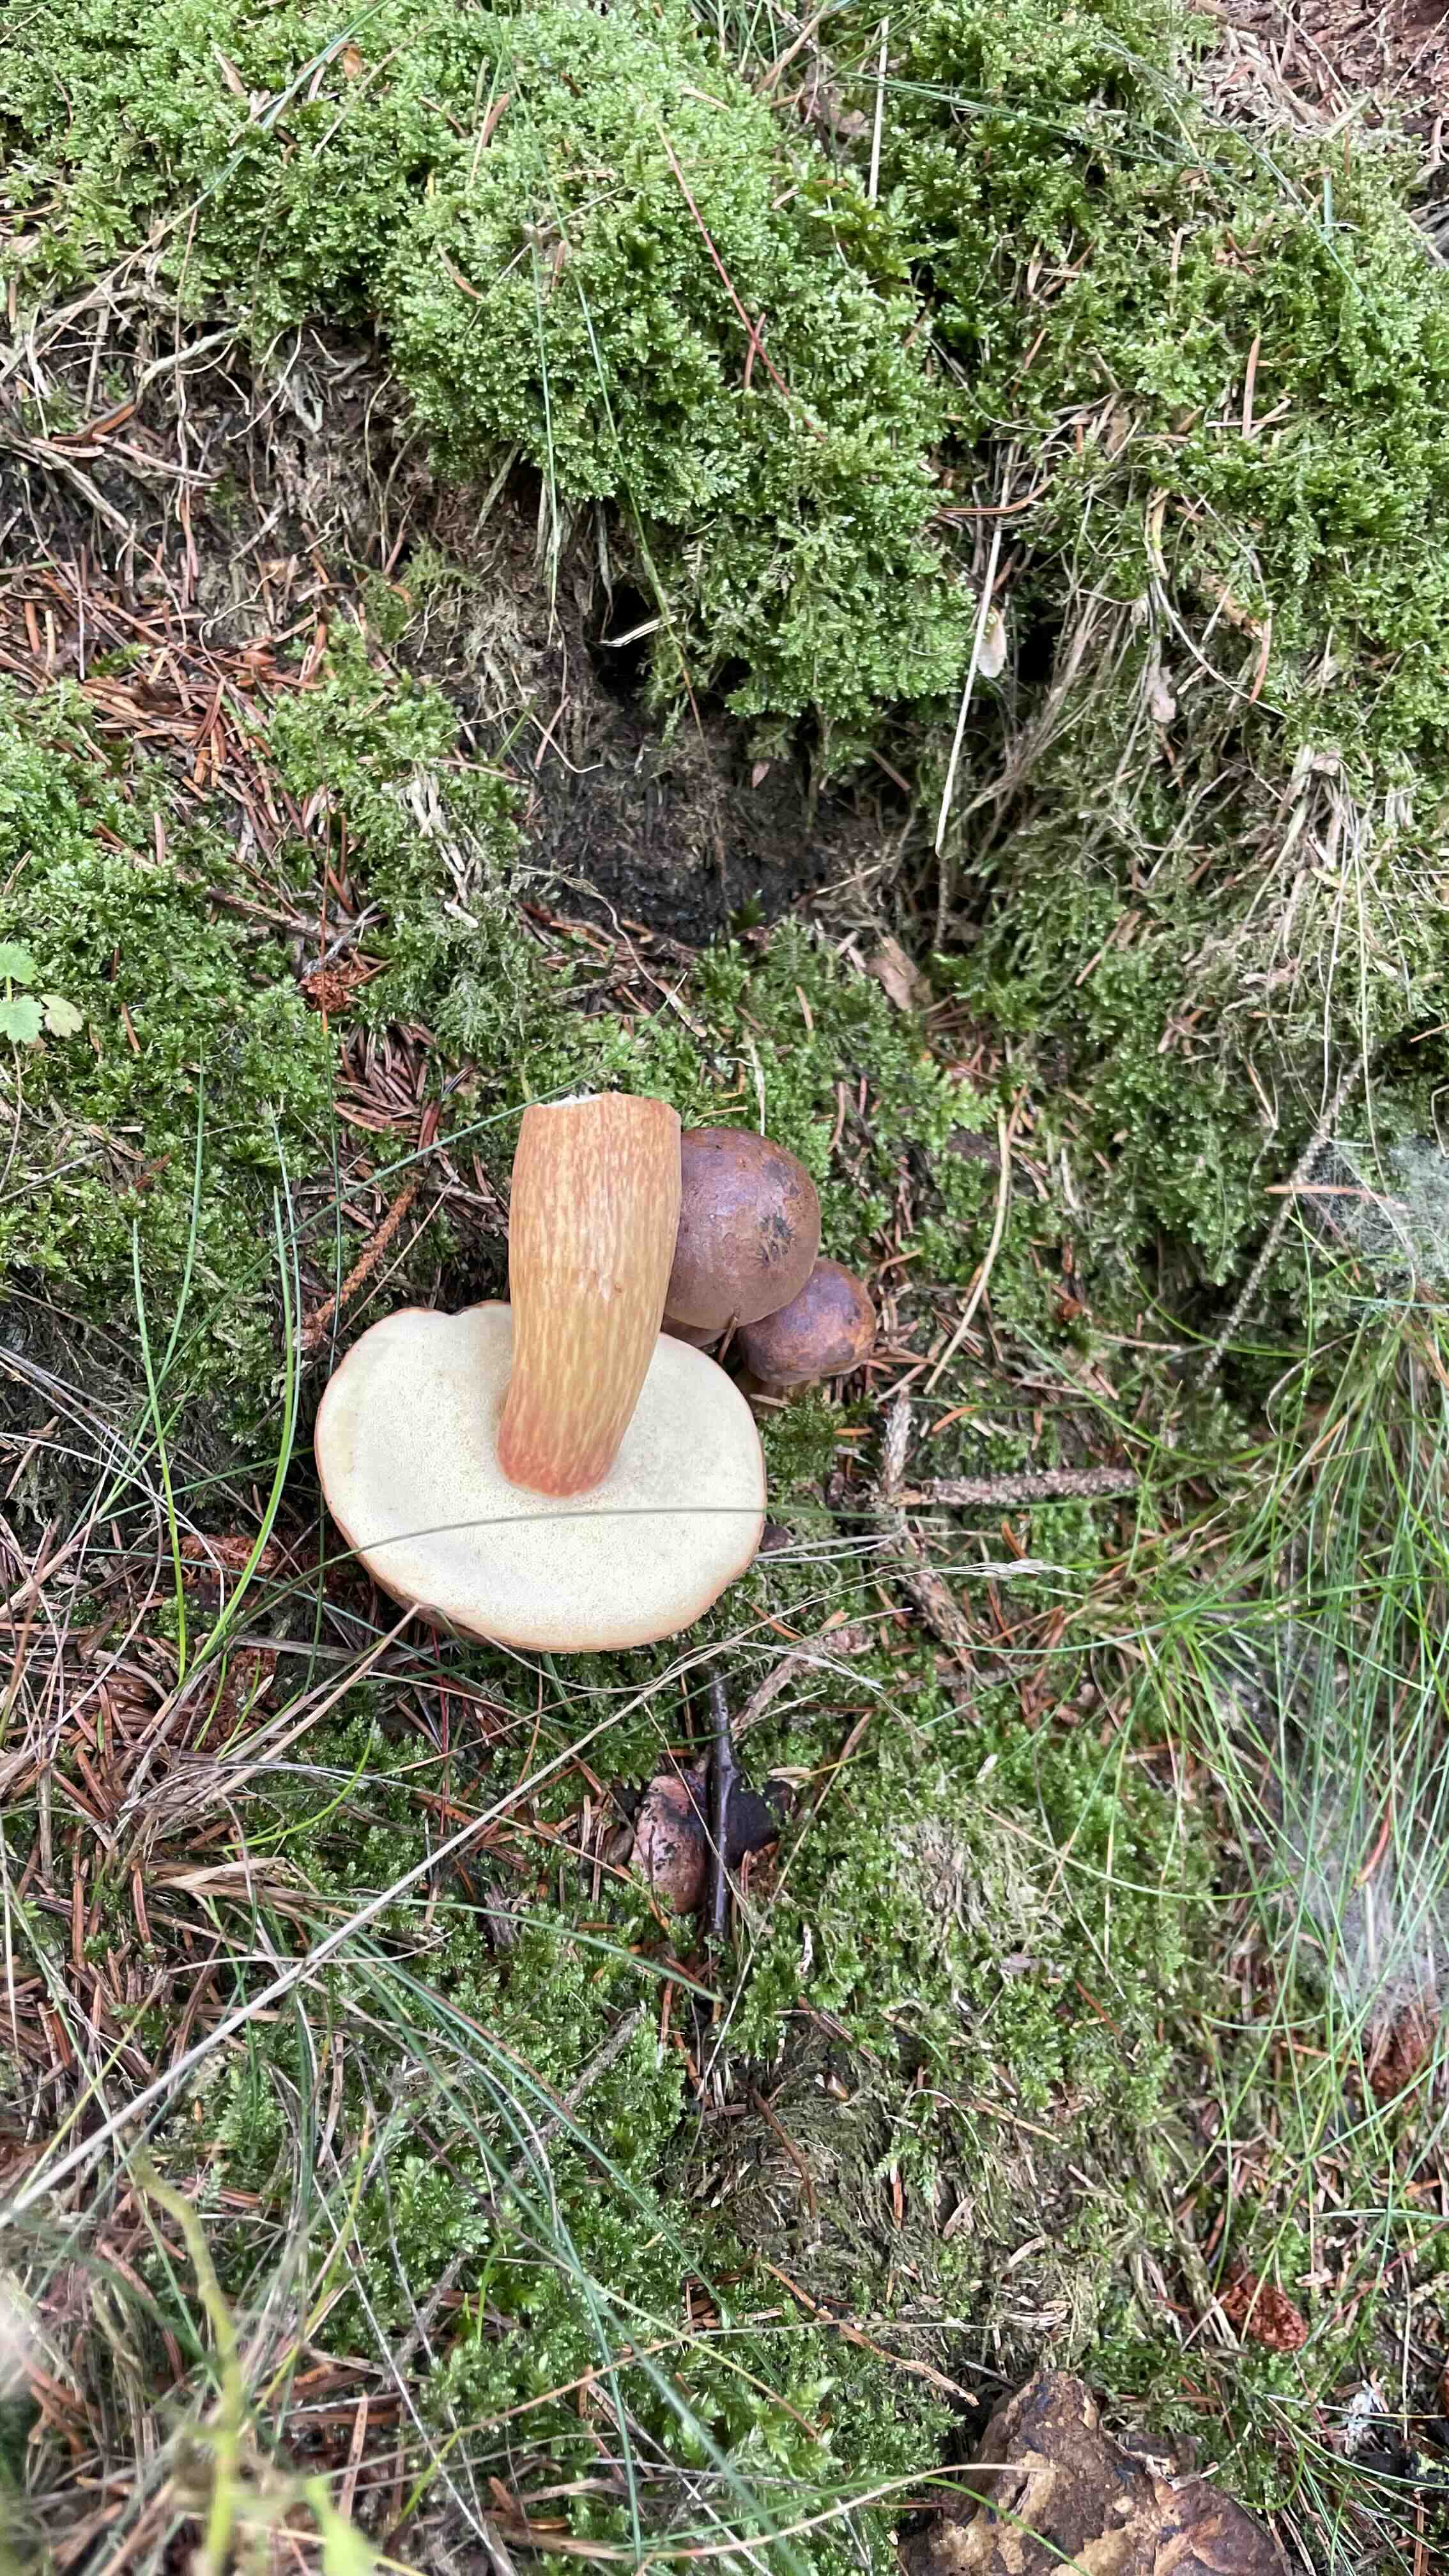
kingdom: Fungi
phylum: Basidiomycota
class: Agaricomycetes
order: Boletales
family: Boletaceae
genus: Imleria
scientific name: Imleria badia
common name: brunstokket rørhat
